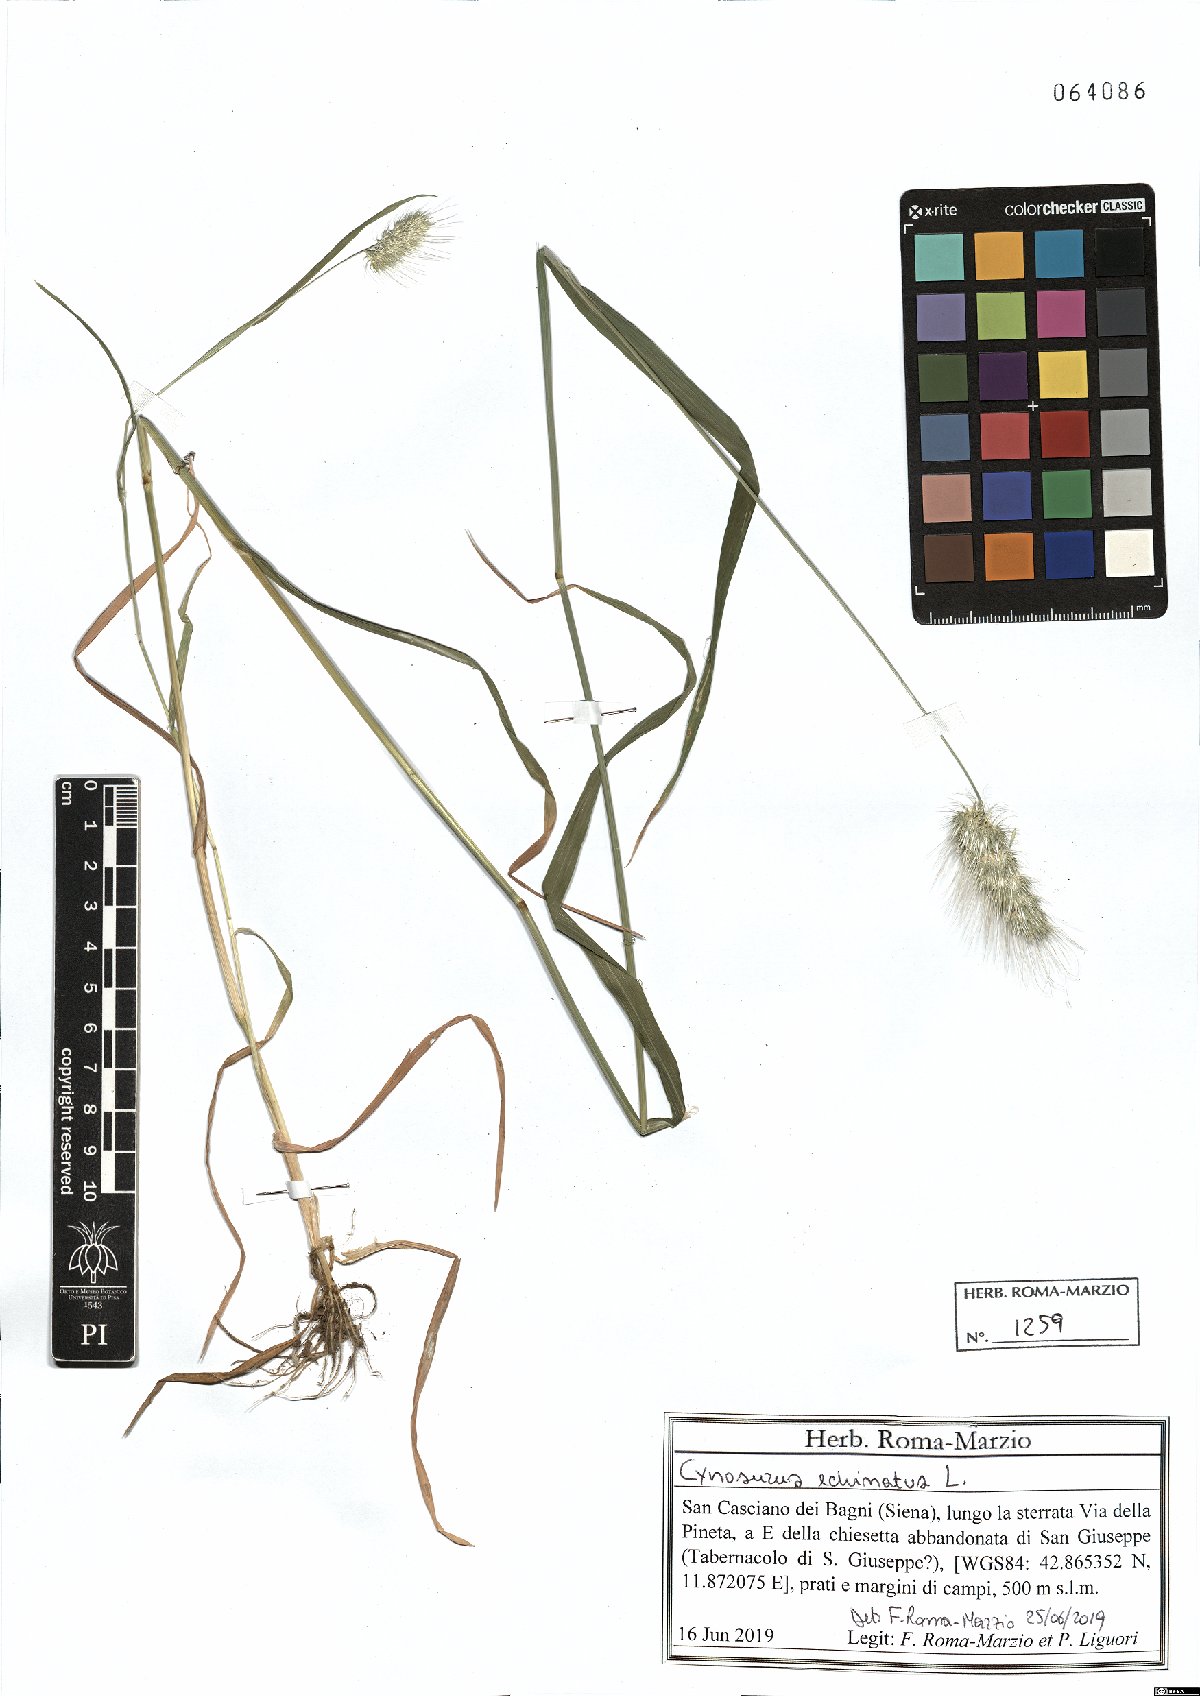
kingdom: Plantae
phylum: Tracheophyta
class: Liliopsida
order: Poales
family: Poaceae
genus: Cynosurus
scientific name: Cynosurus echinatus
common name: Rough dog's-tail
